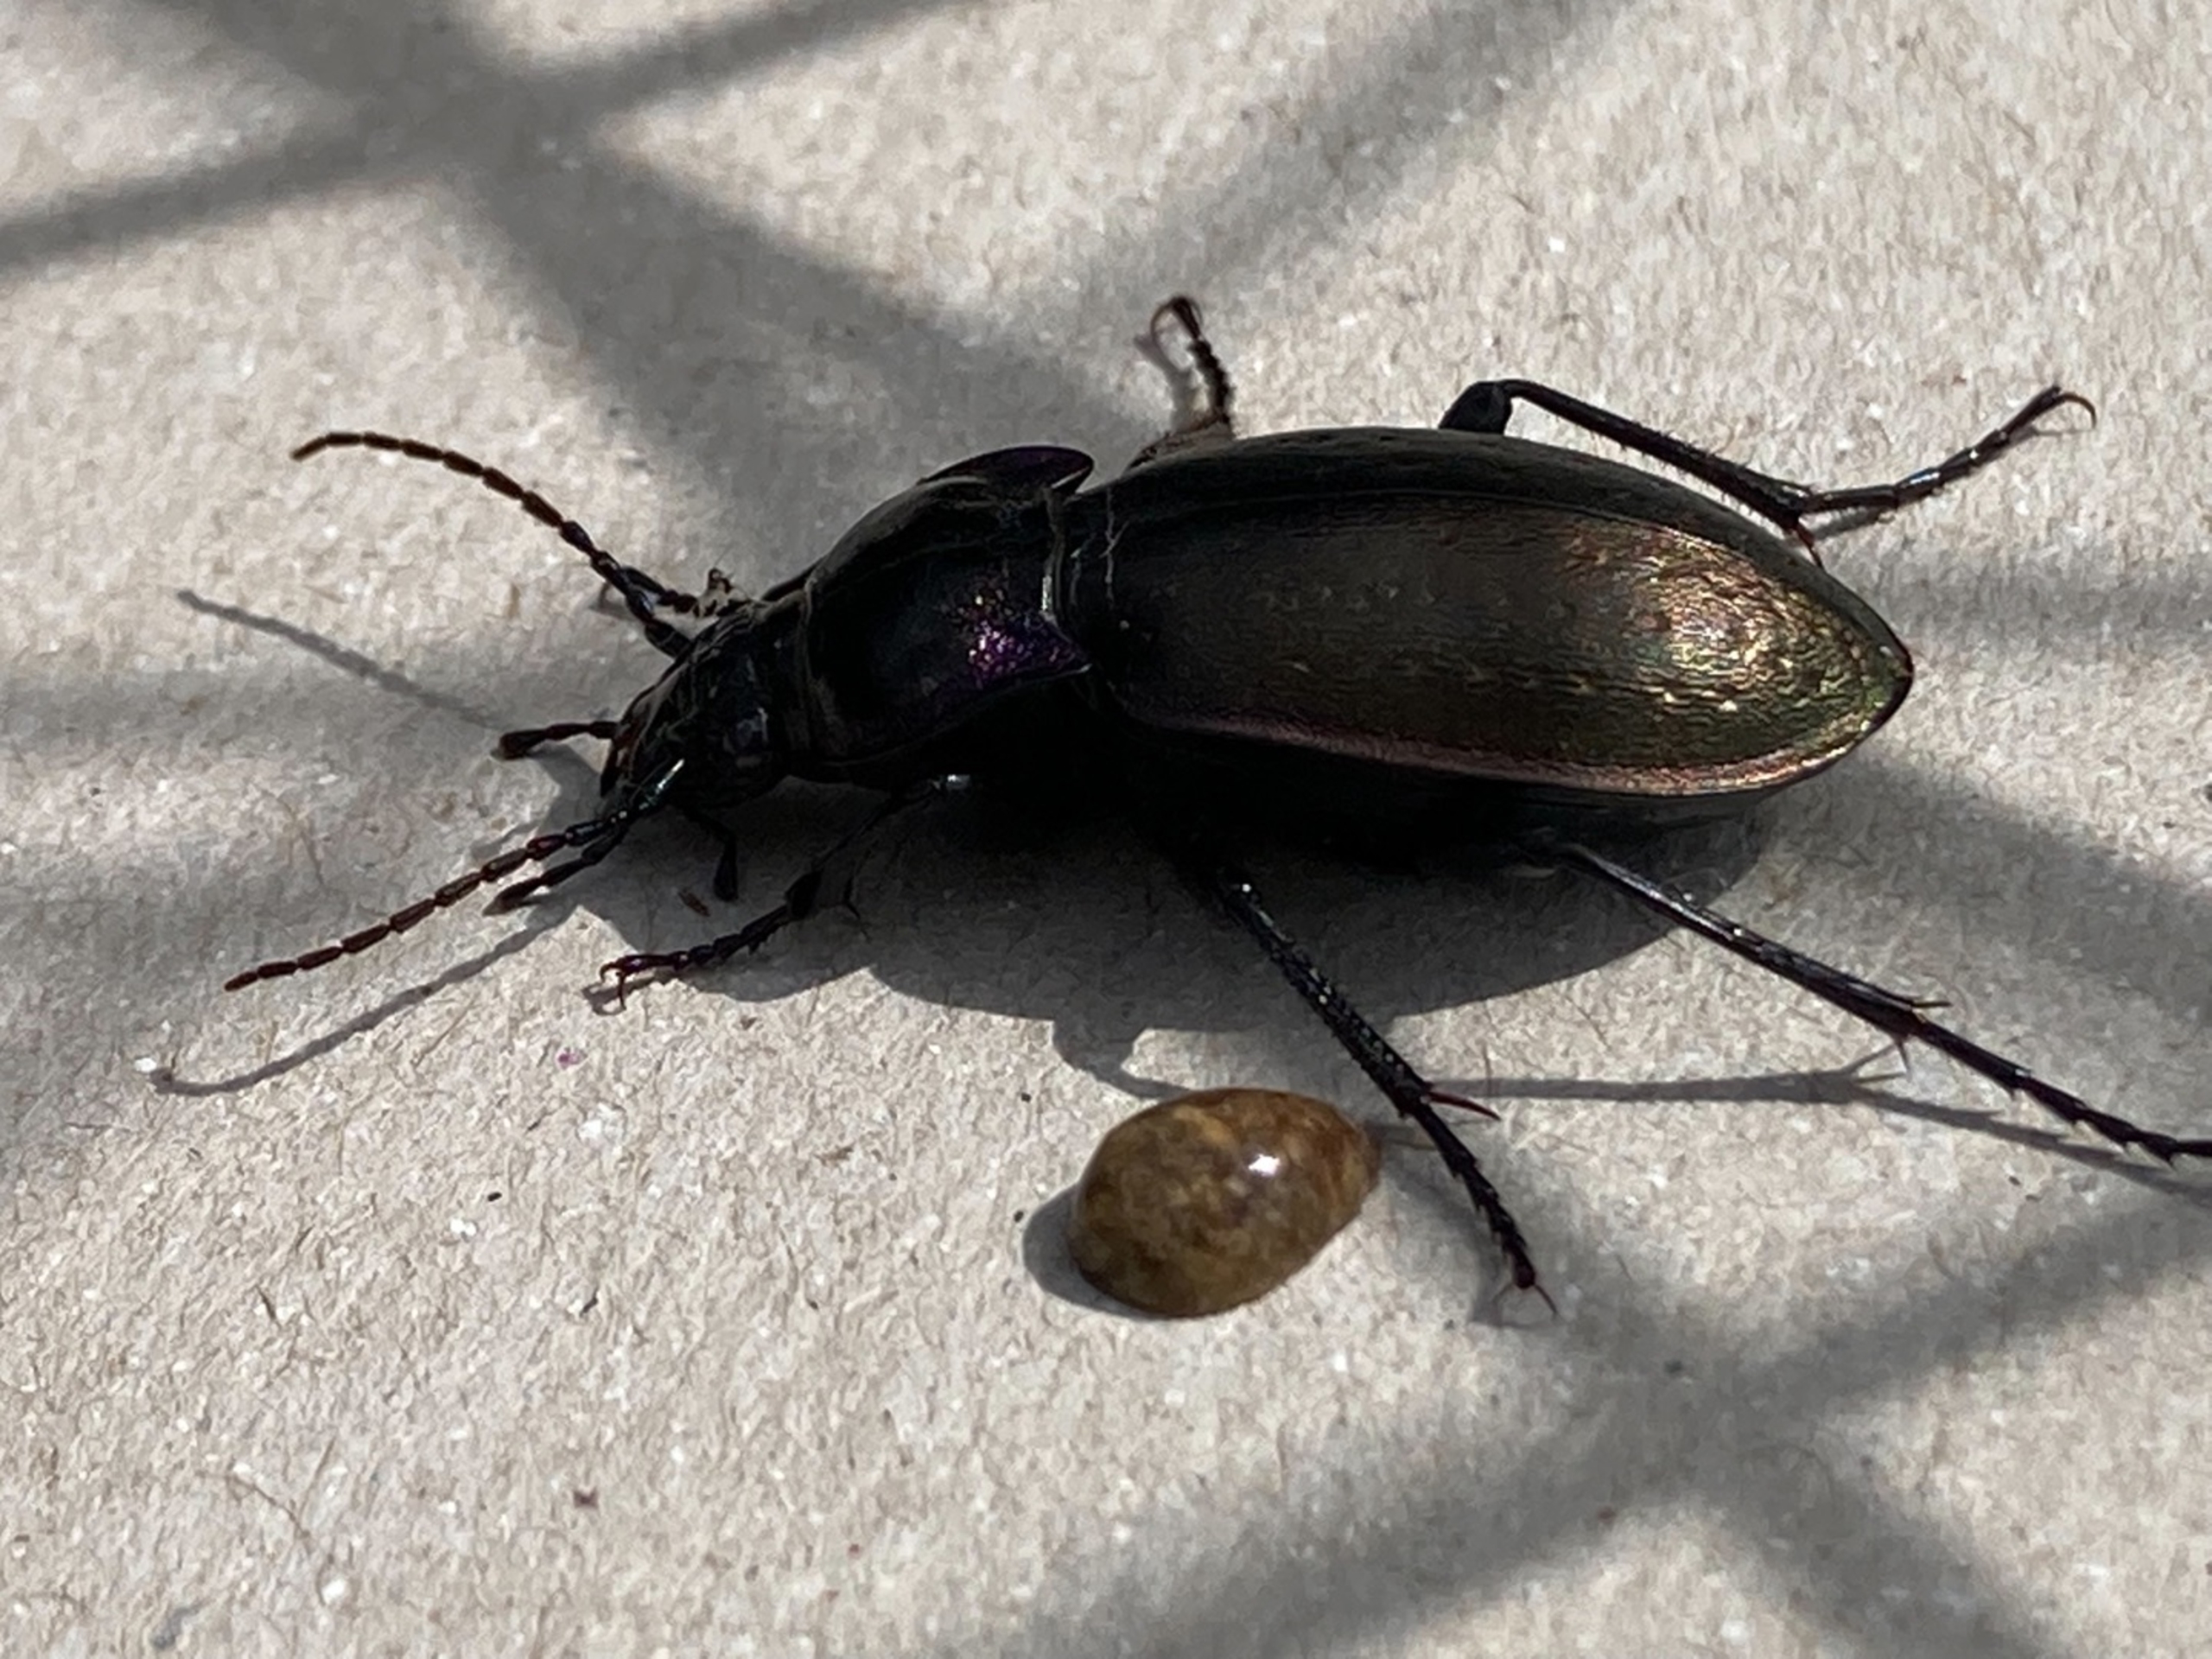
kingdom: Animalia
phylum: Arthropoda
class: Insecta
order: Coleoptera
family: Carabidae
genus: Carabus
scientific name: Carabus nemoralis
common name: Kratløber
